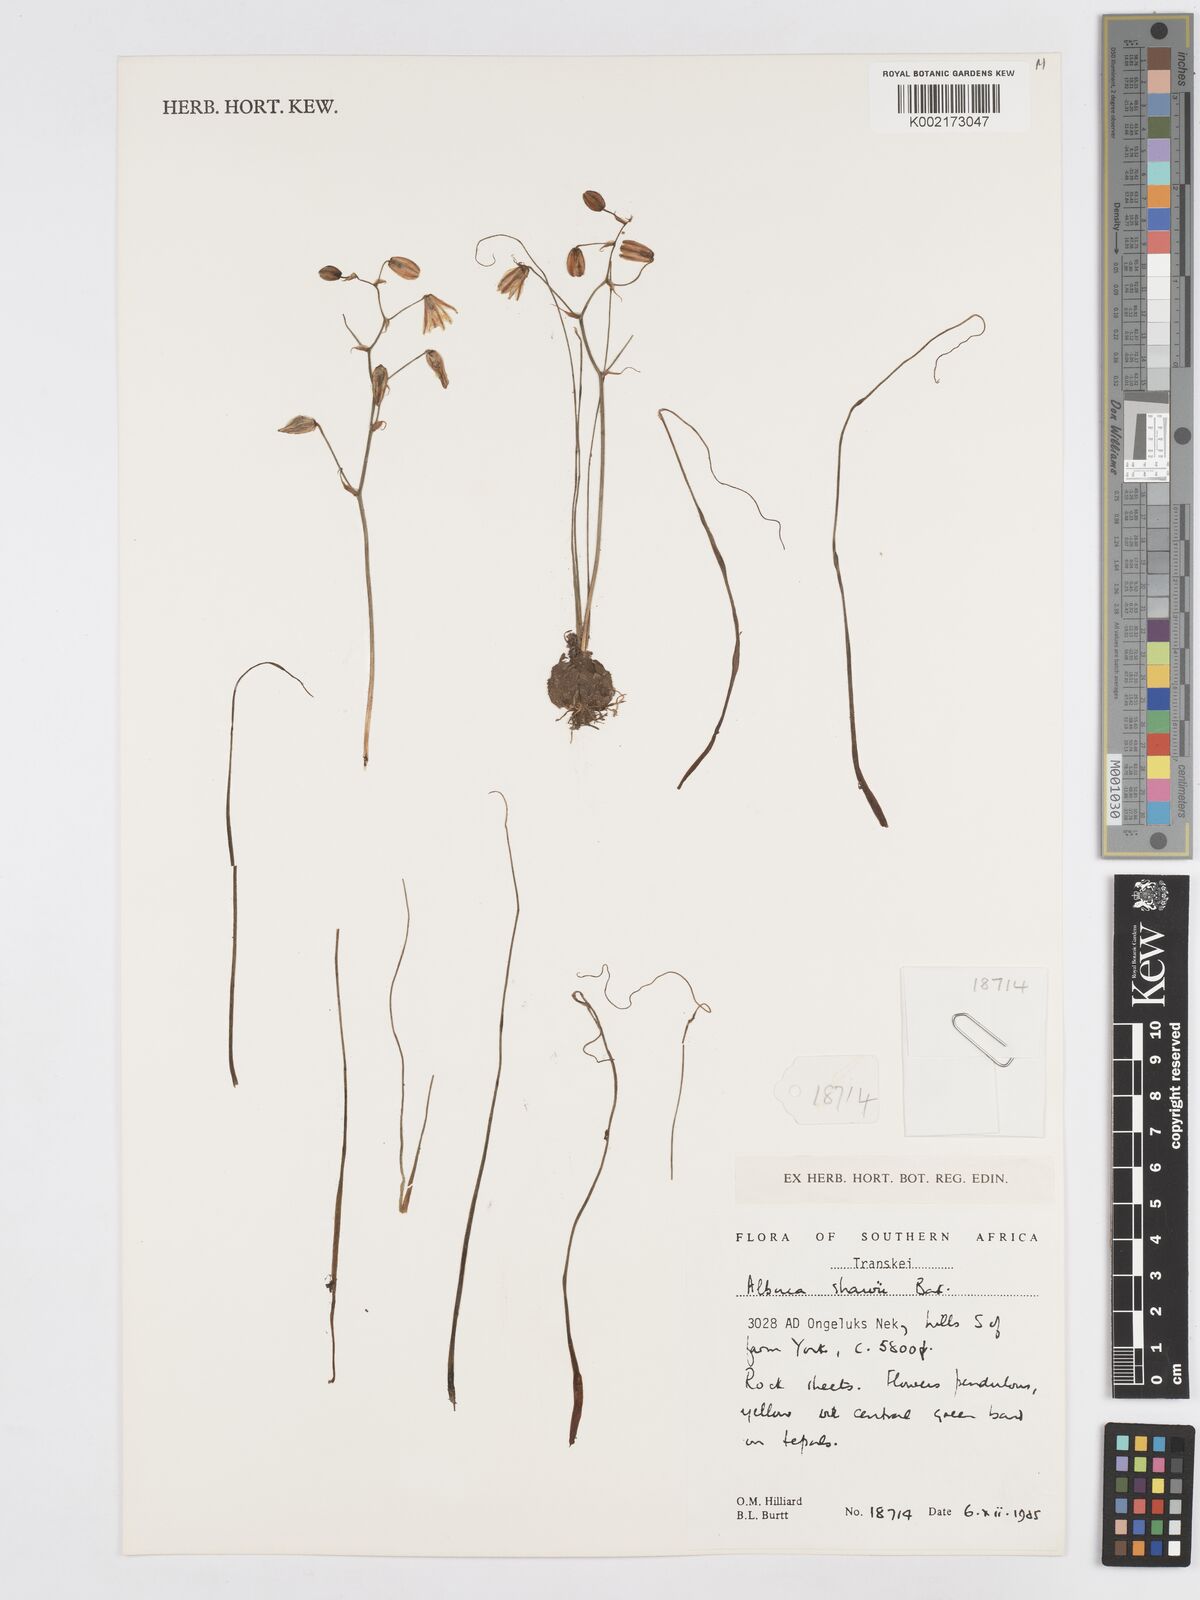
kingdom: Plantae
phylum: Tracheophyta
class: Liliopsida
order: Asparagales
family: Asparagaceae
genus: Albuca
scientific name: Albuca shawii
